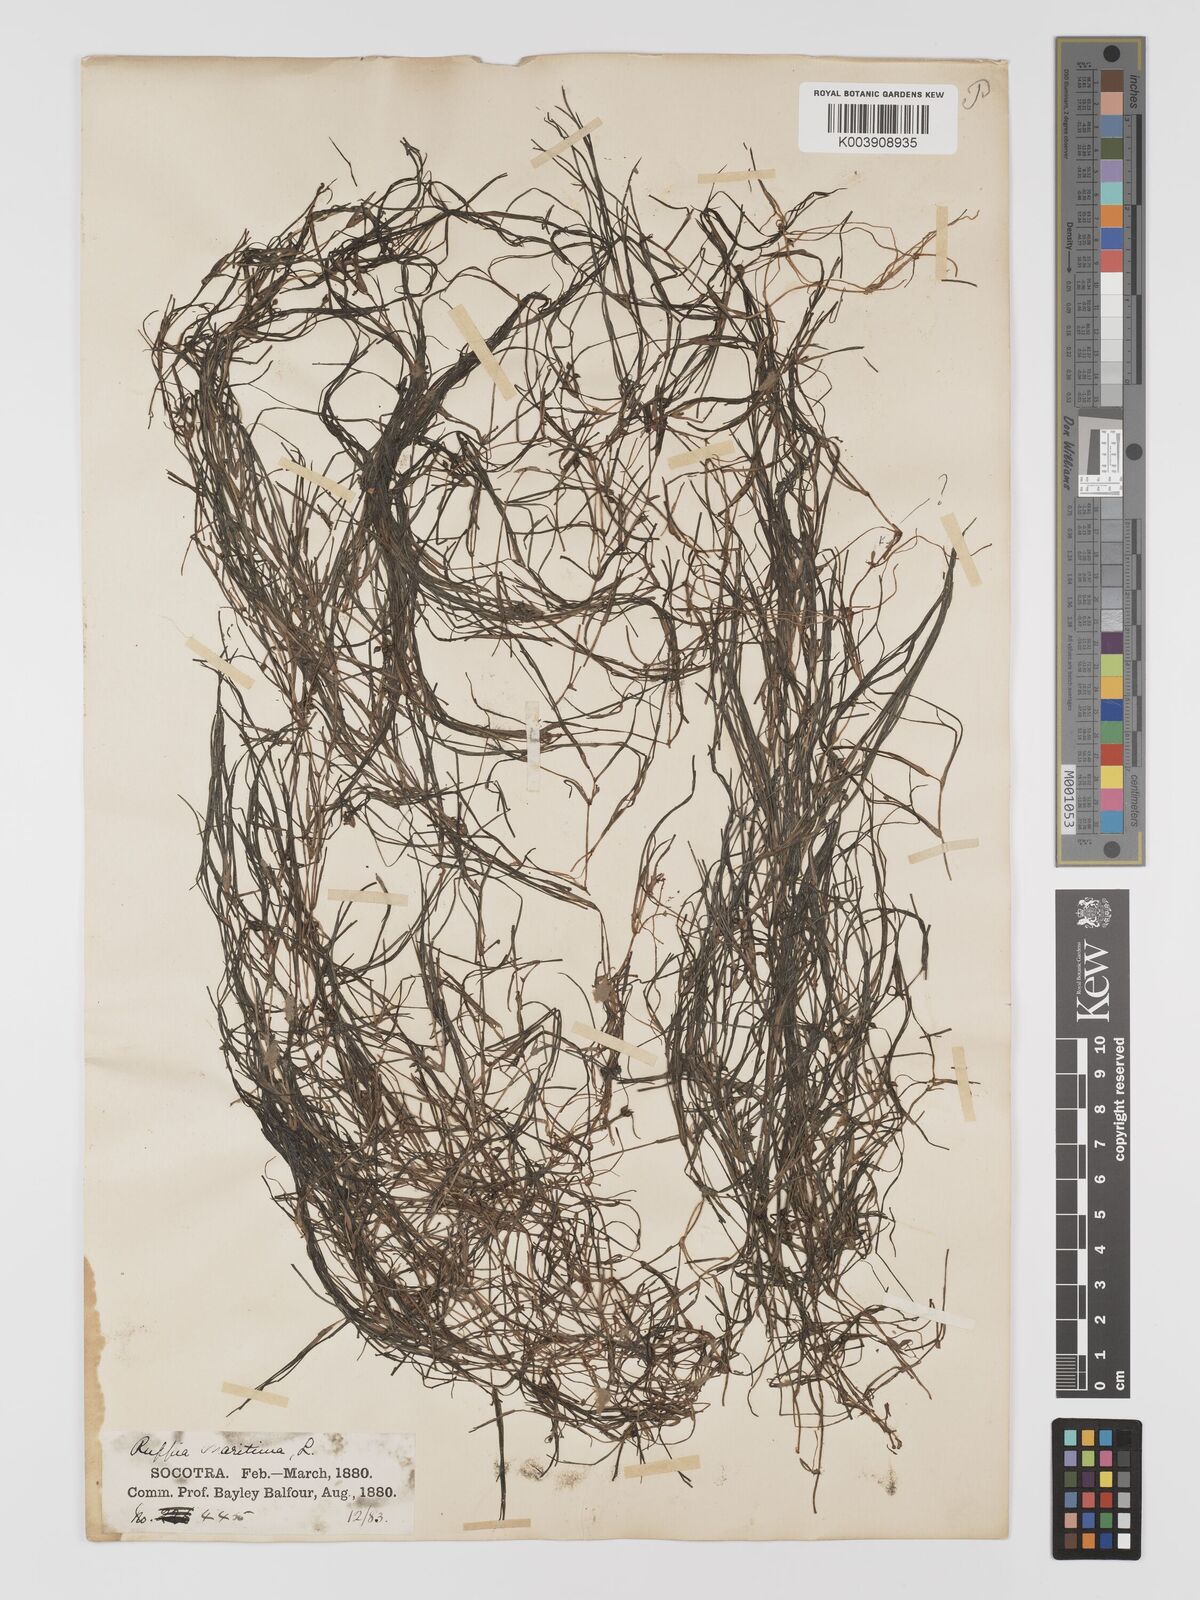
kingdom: Plantae
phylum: Tracheophyta
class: Liliopsida
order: Alismatales
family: Ruppiaceae
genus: Ruppia
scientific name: Ruppia maritima
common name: Beaked tasselweed
